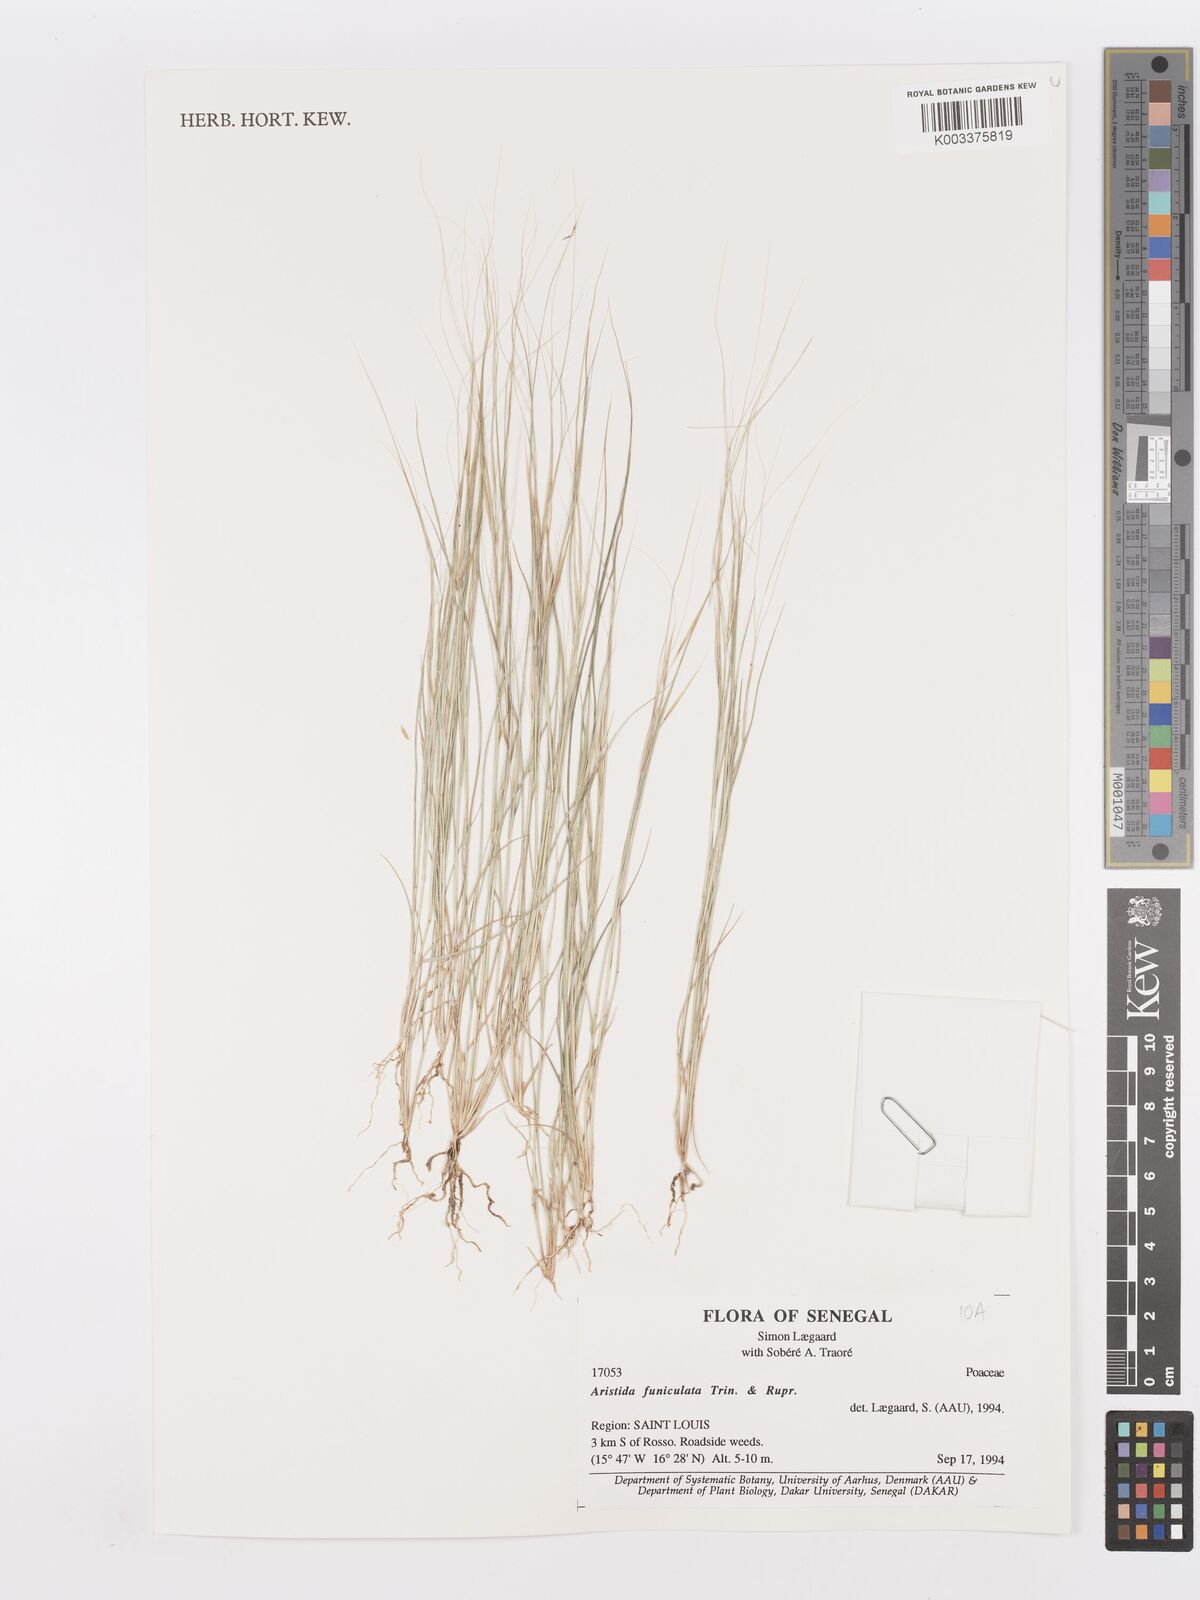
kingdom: Plantae
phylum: Tracheophyta
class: Liliopsida
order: Poales
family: Poaceae
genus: Aristida
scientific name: Aristida funiculata
